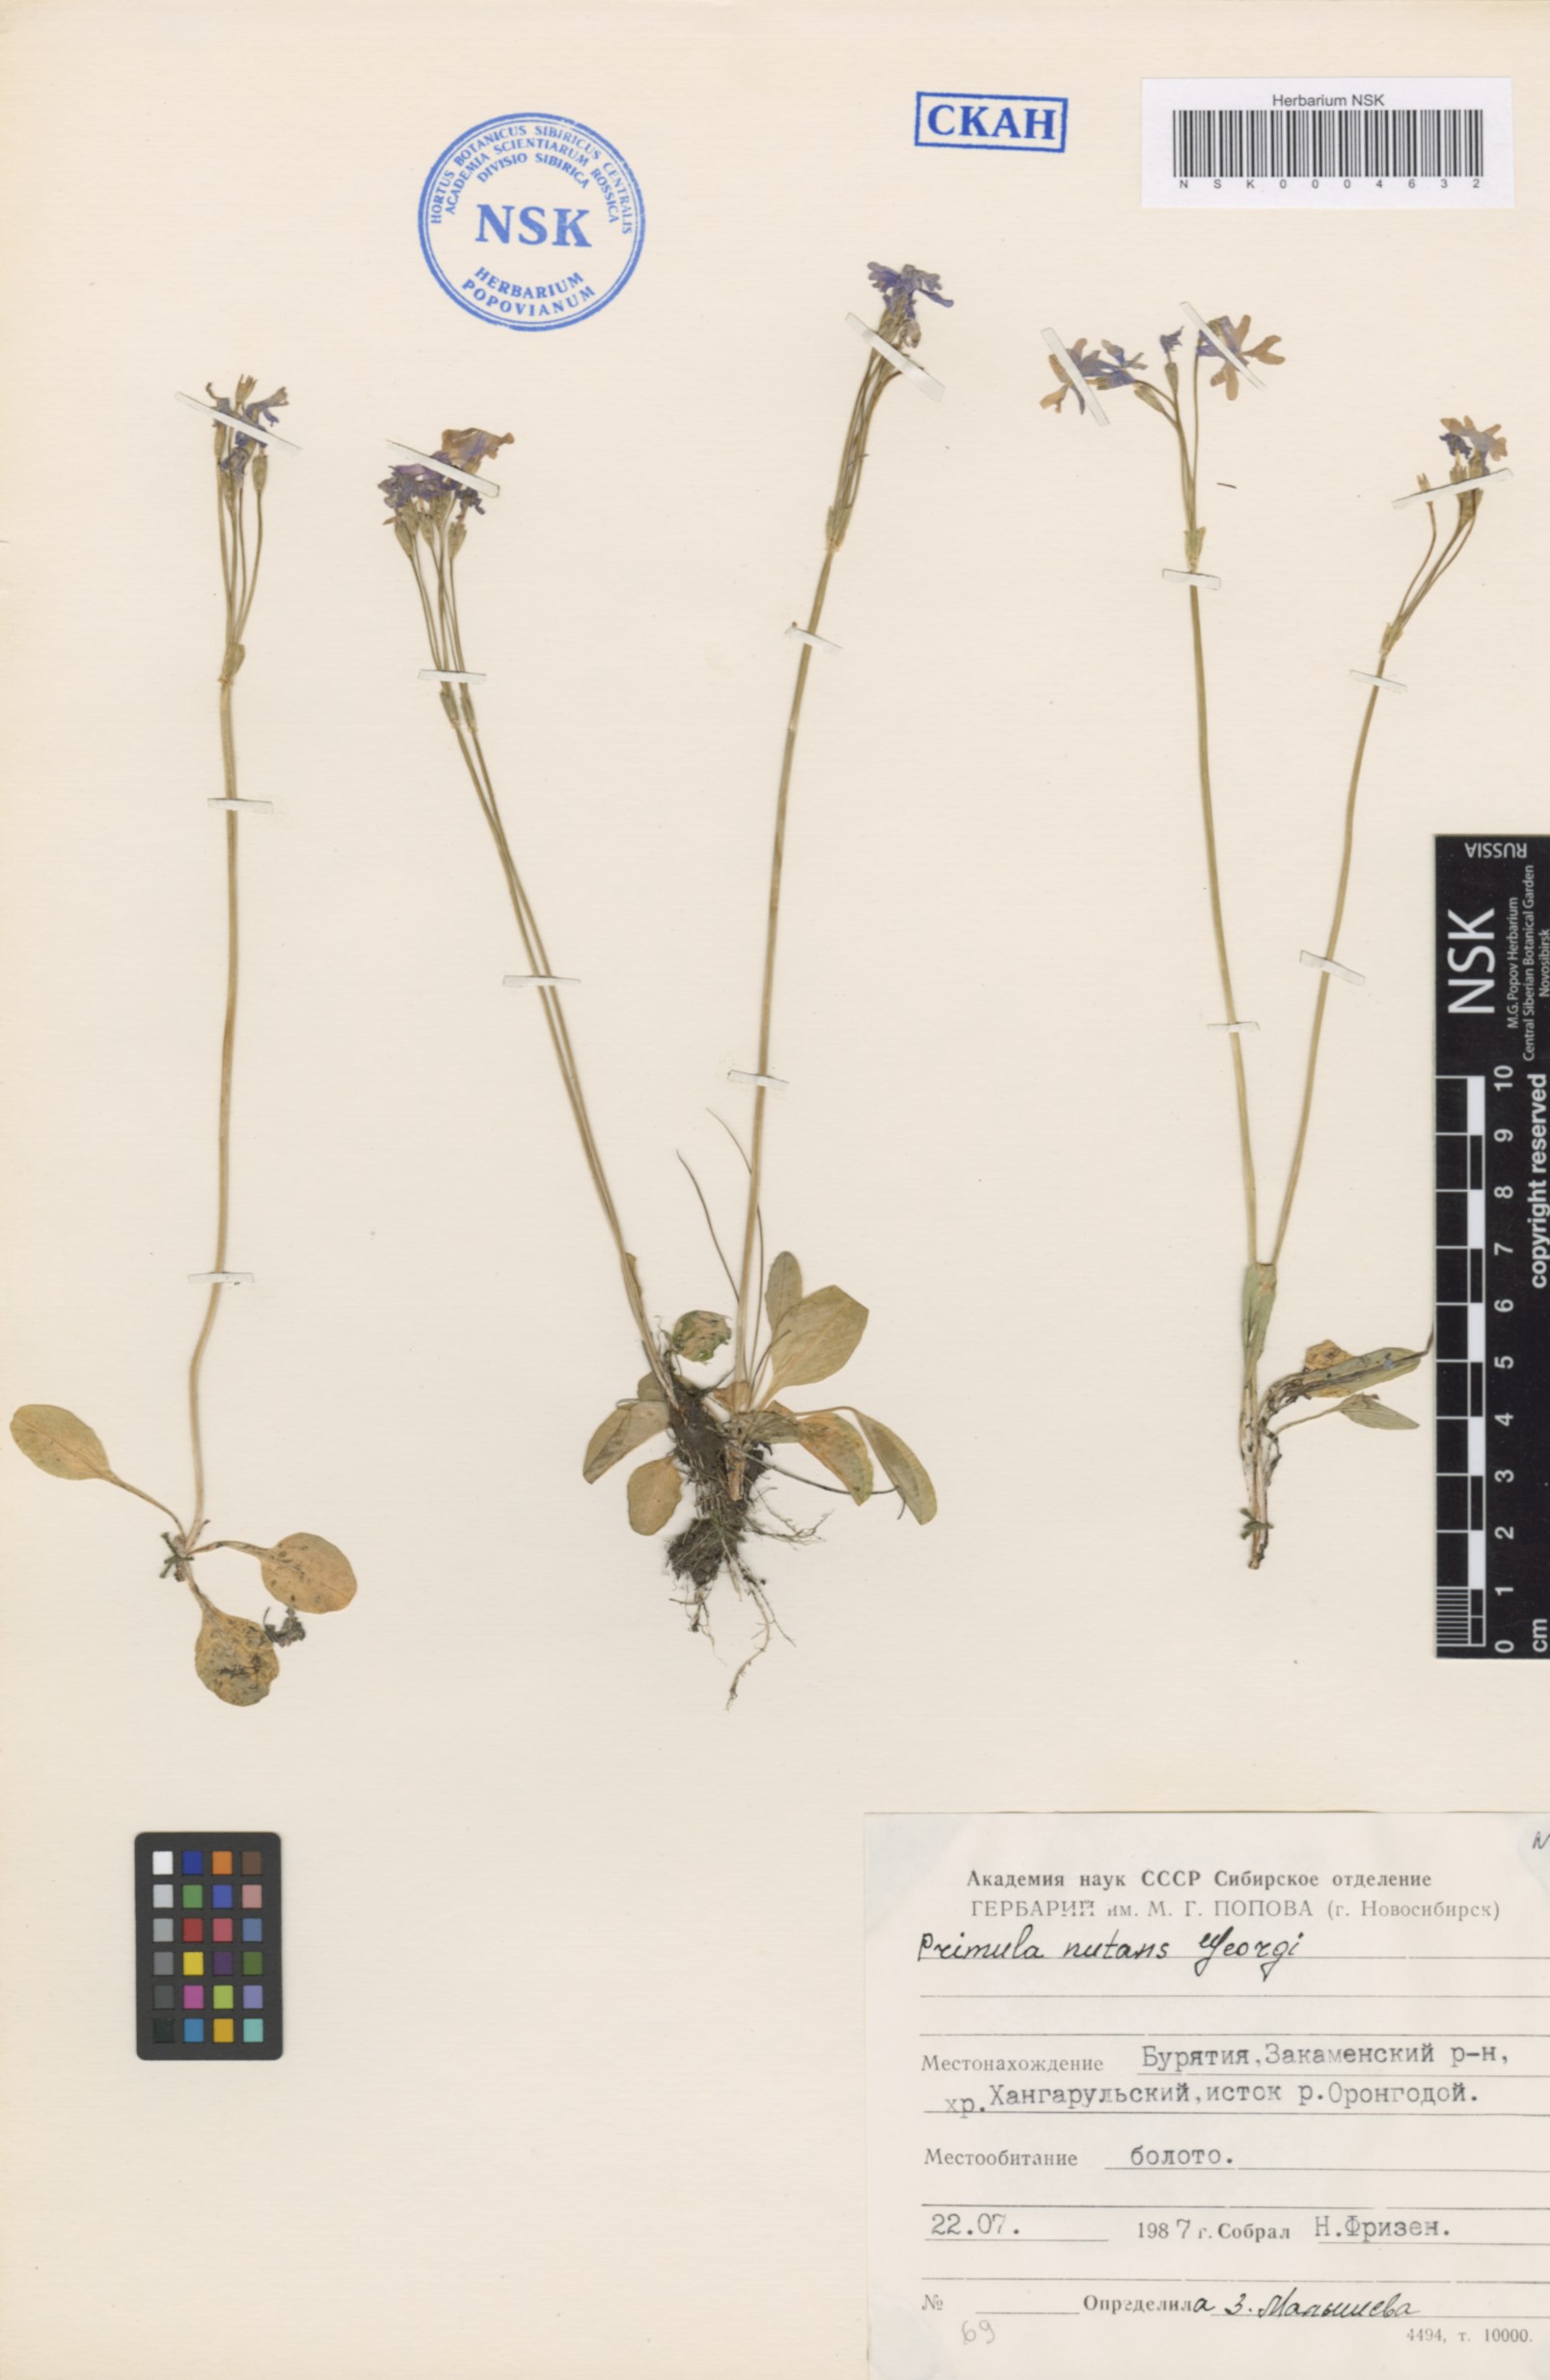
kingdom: Plantae
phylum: Tracheophyta
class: Magnoliopsida
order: Ericales
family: Primulaceae
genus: Primula
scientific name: Primula nutans
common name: Siberian primrose
